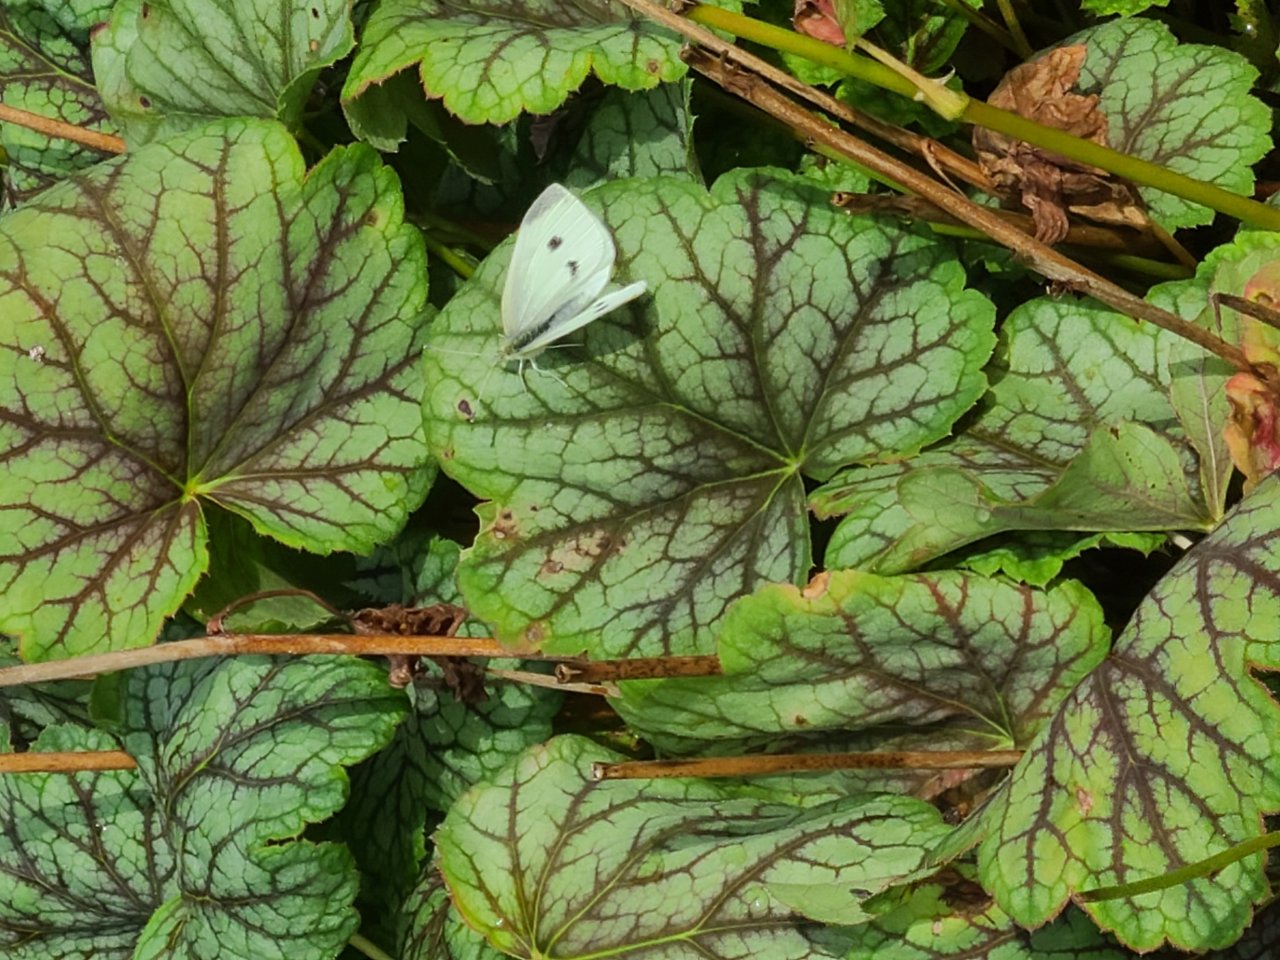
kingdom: Animalia
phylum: Arthropoda
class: Insecta
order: Lepidoptera
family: Pieridae
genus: Pieris
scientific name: Pieris rapae
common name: Cabbage White
